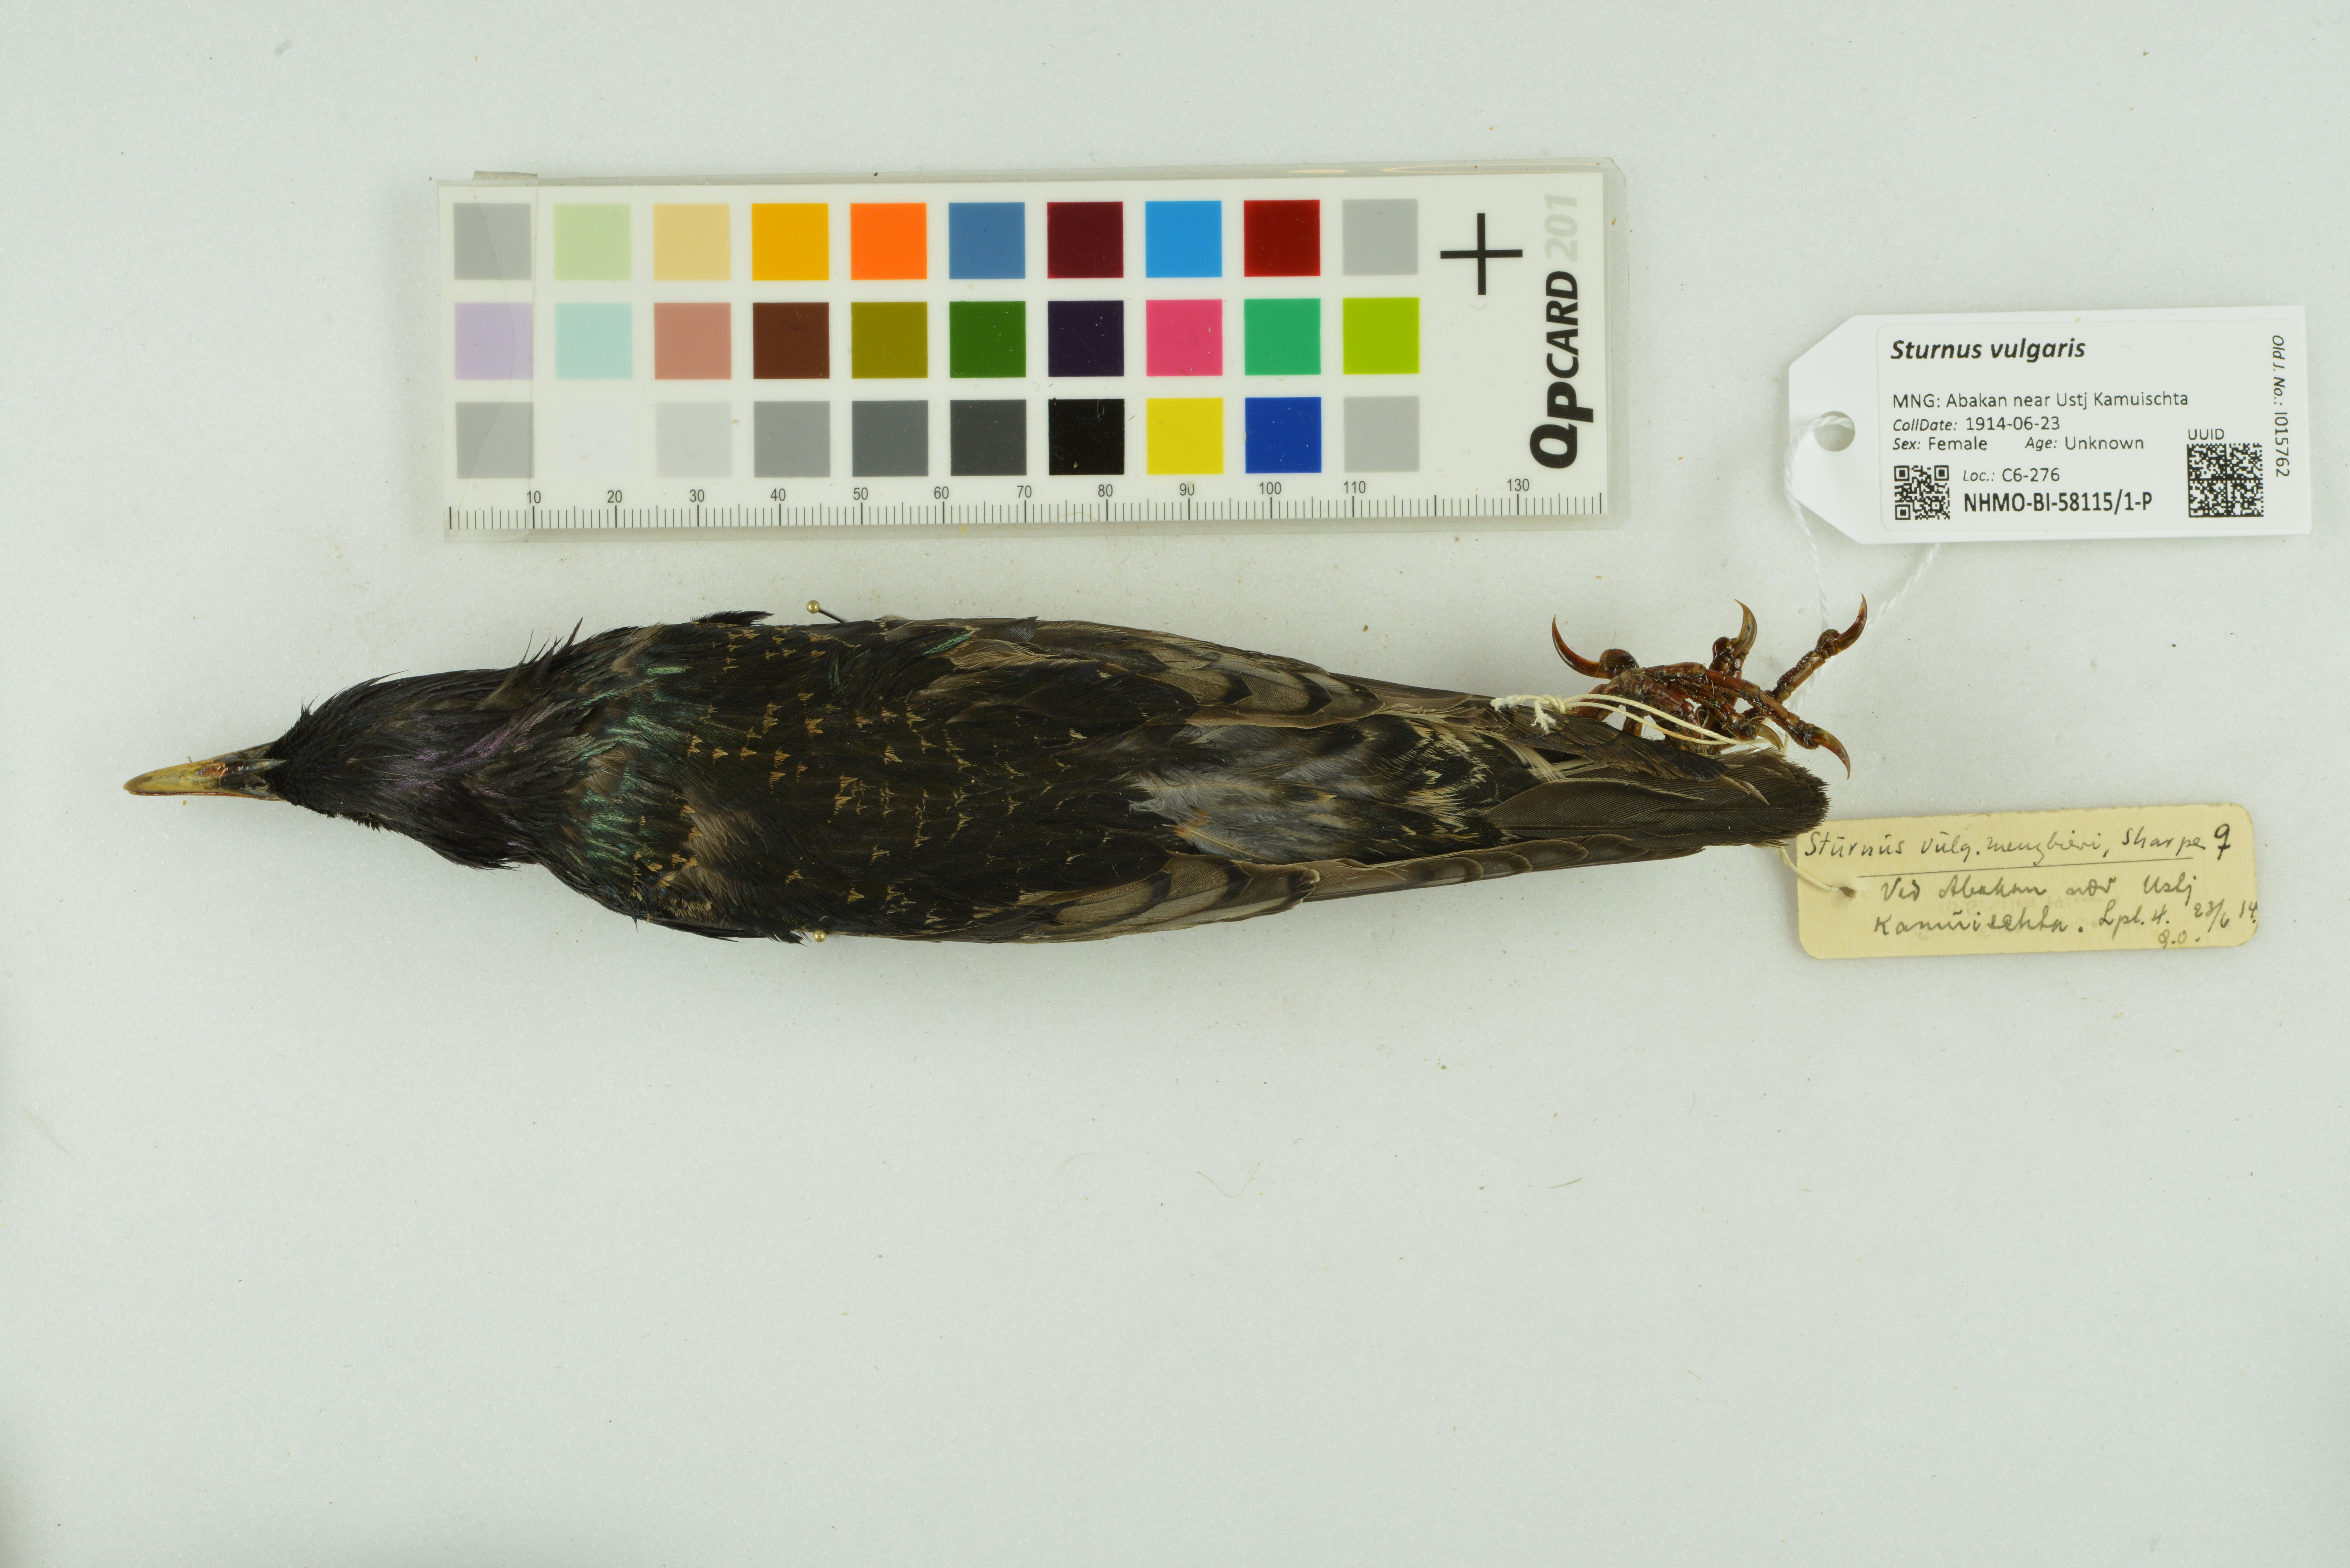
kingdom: Animalia
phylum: Chordata
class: Aves
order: Passeriformes
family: Sturnidae
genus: Sturnus
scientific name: Sturnus vulgaris
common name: Common starling
